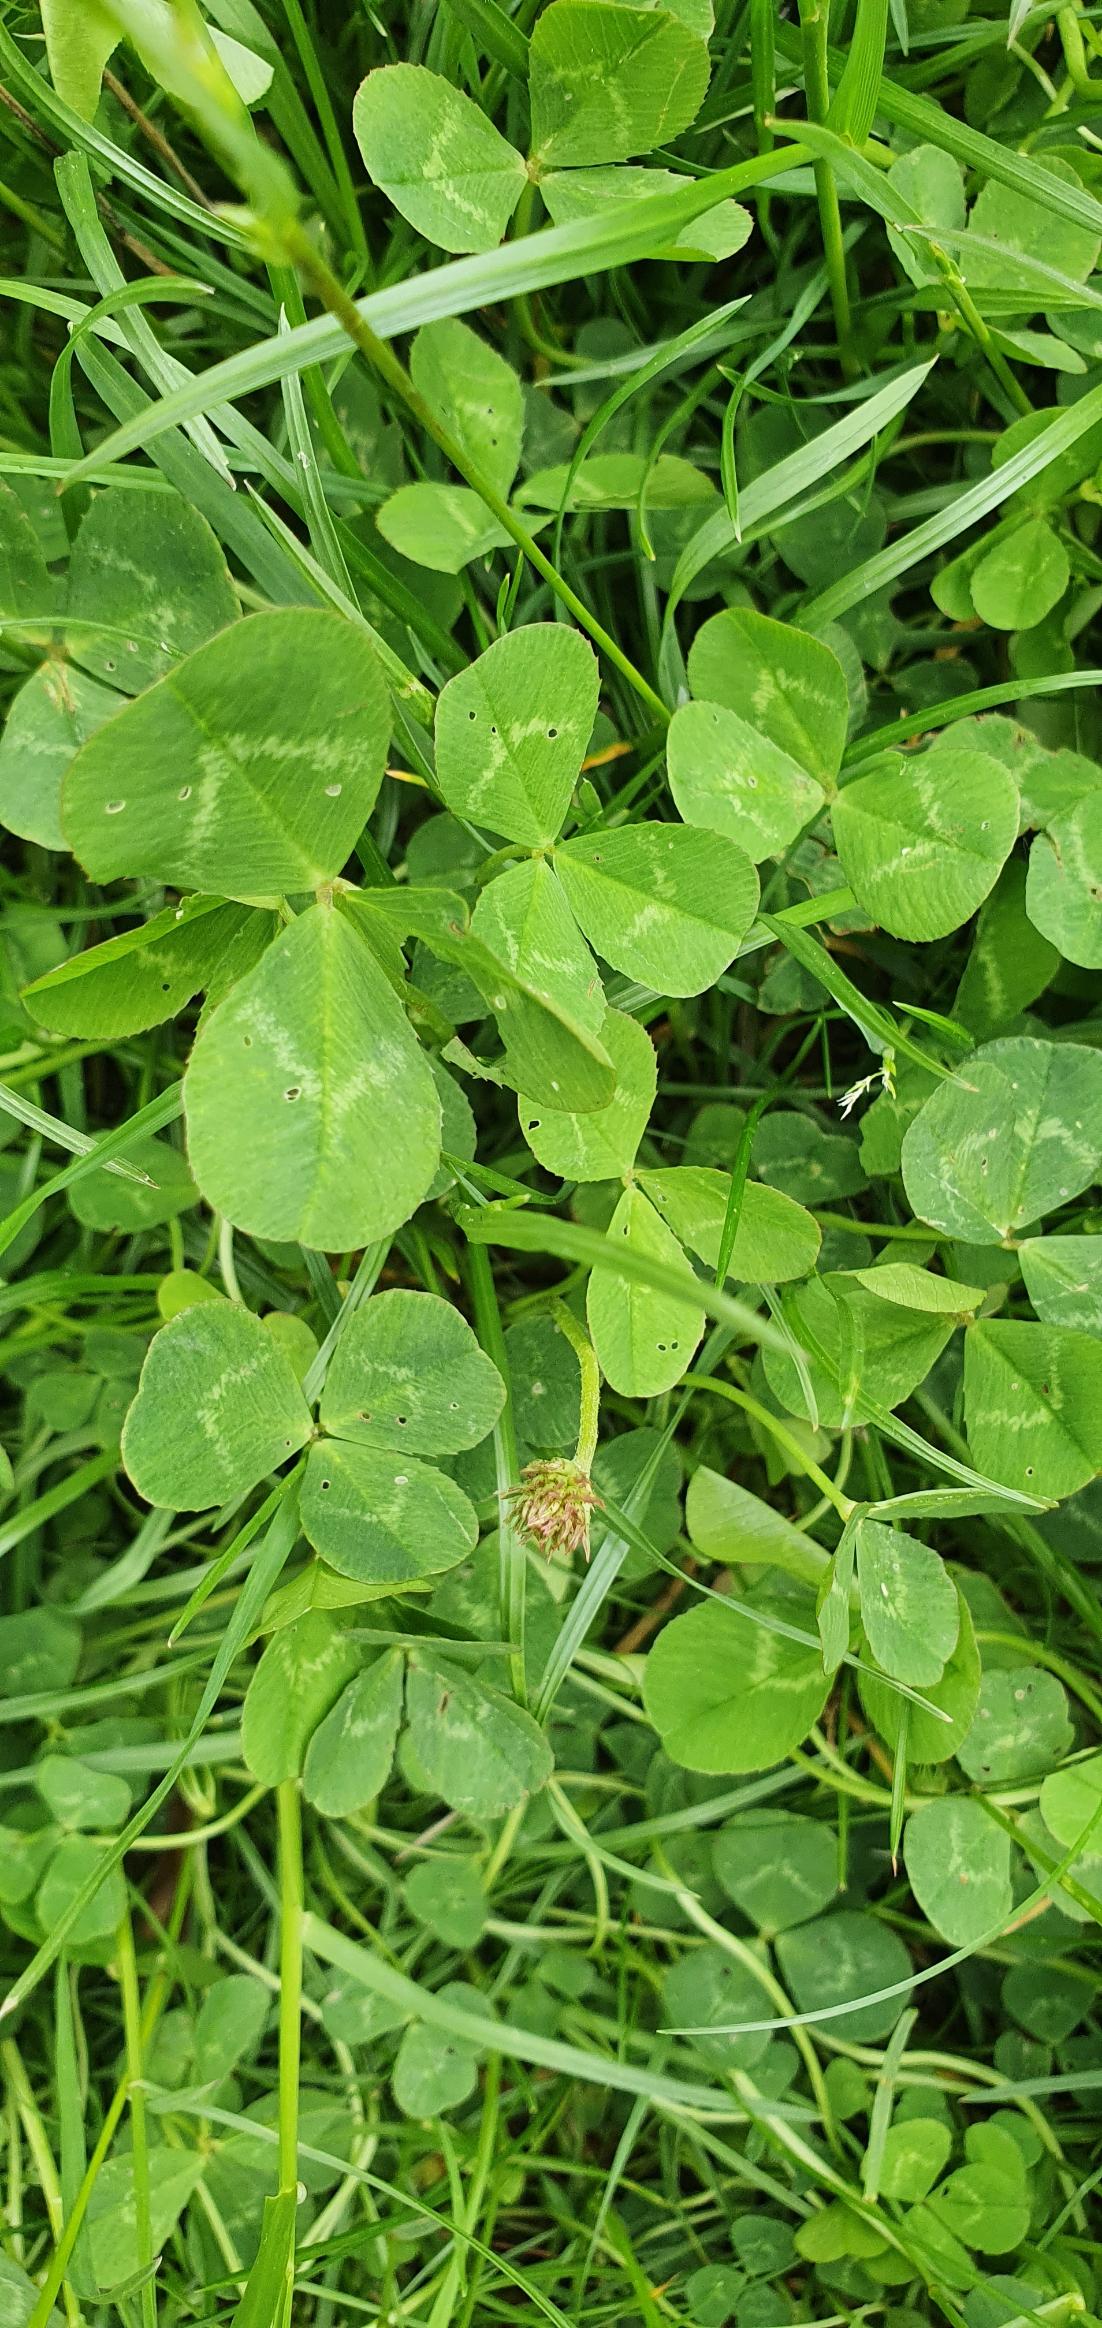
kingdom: Plantae
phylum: Tracheophyta
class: Magnoliopsida
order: Fabales
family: Fabaceae
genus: Trifolium
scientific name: Trifolium repens
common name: Hvid-kløver
